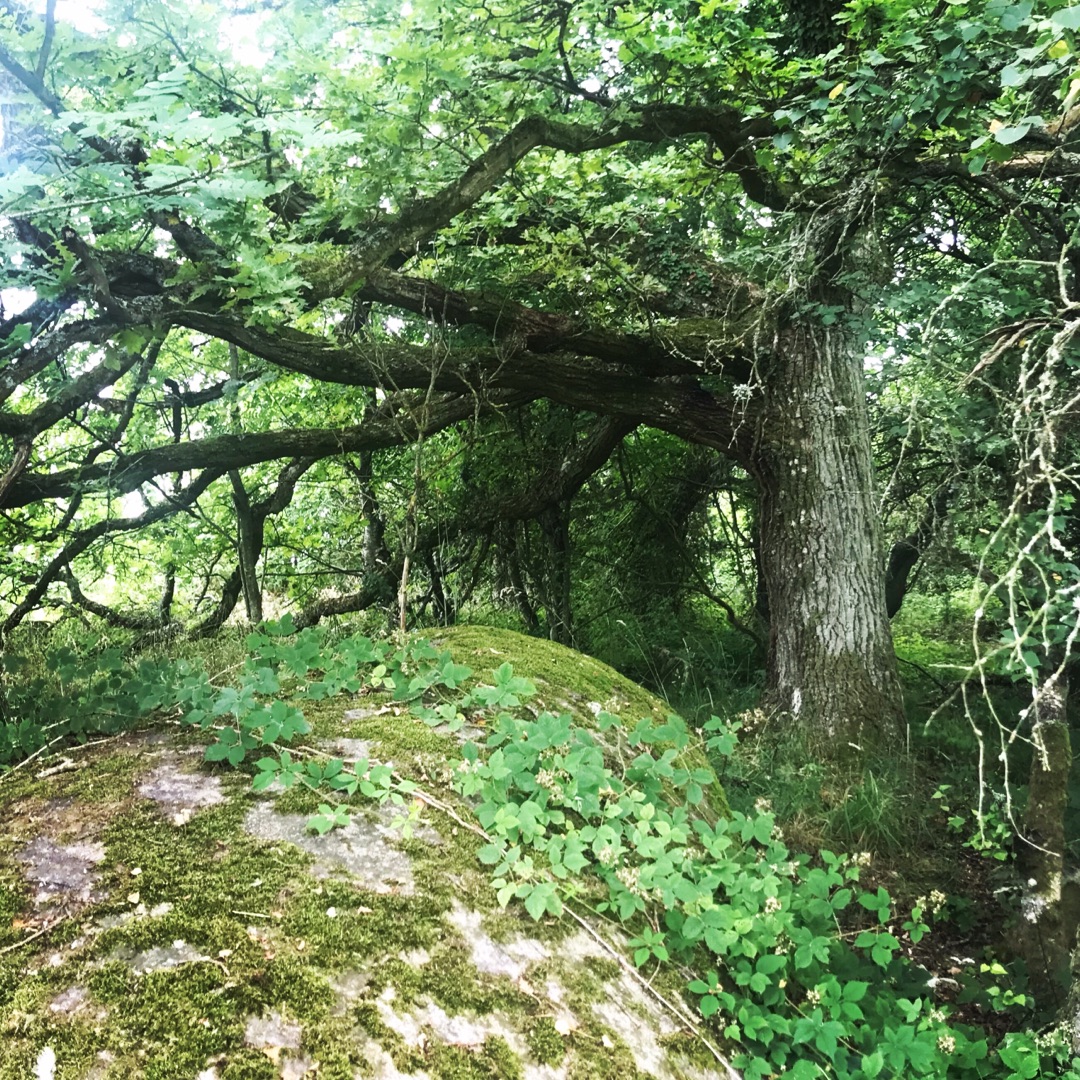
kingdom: Plantae
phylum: Tracheophyta
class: Magnoliopsida
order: Fagales
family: Fagaceae
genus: Quercus
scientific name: Quercus robur
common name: Stilk-eg/almindelig eg
